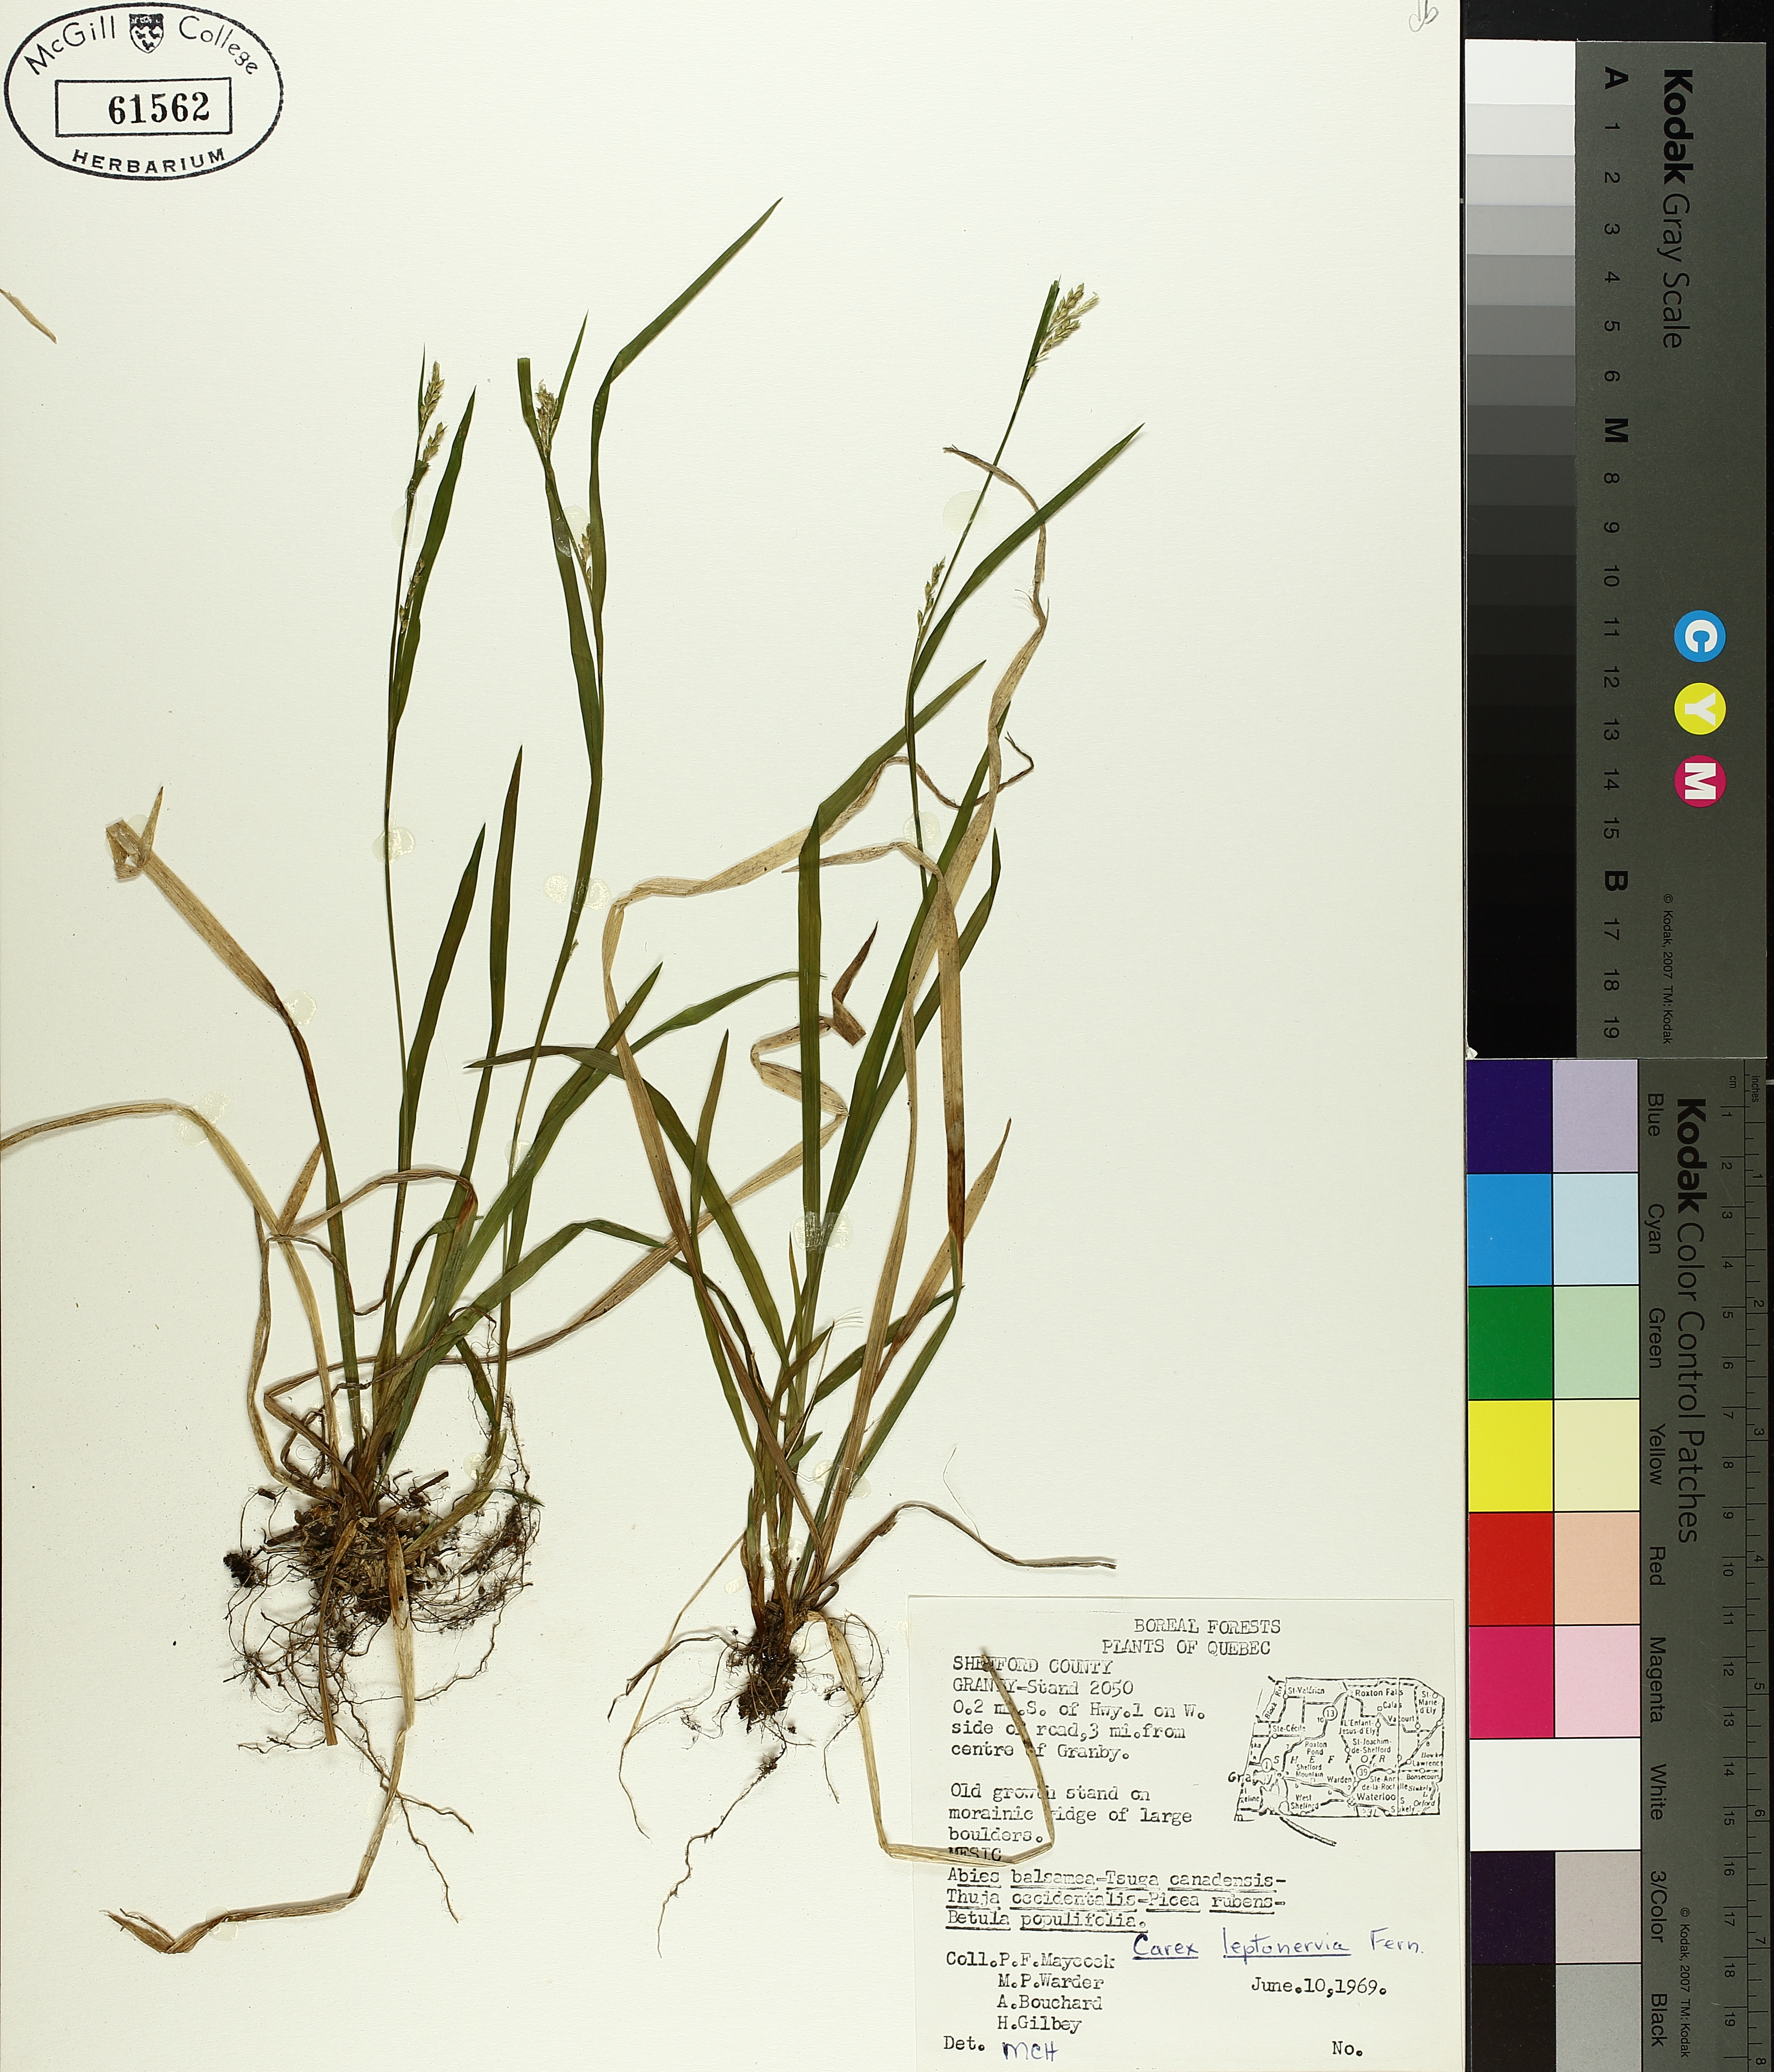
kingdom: Plantae
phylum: Tracheophyta
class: Liliopsida
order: Poales
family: Cyperaceae
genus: Carex
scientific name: Carex leptonervia
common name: Few-nerved wood sedge
